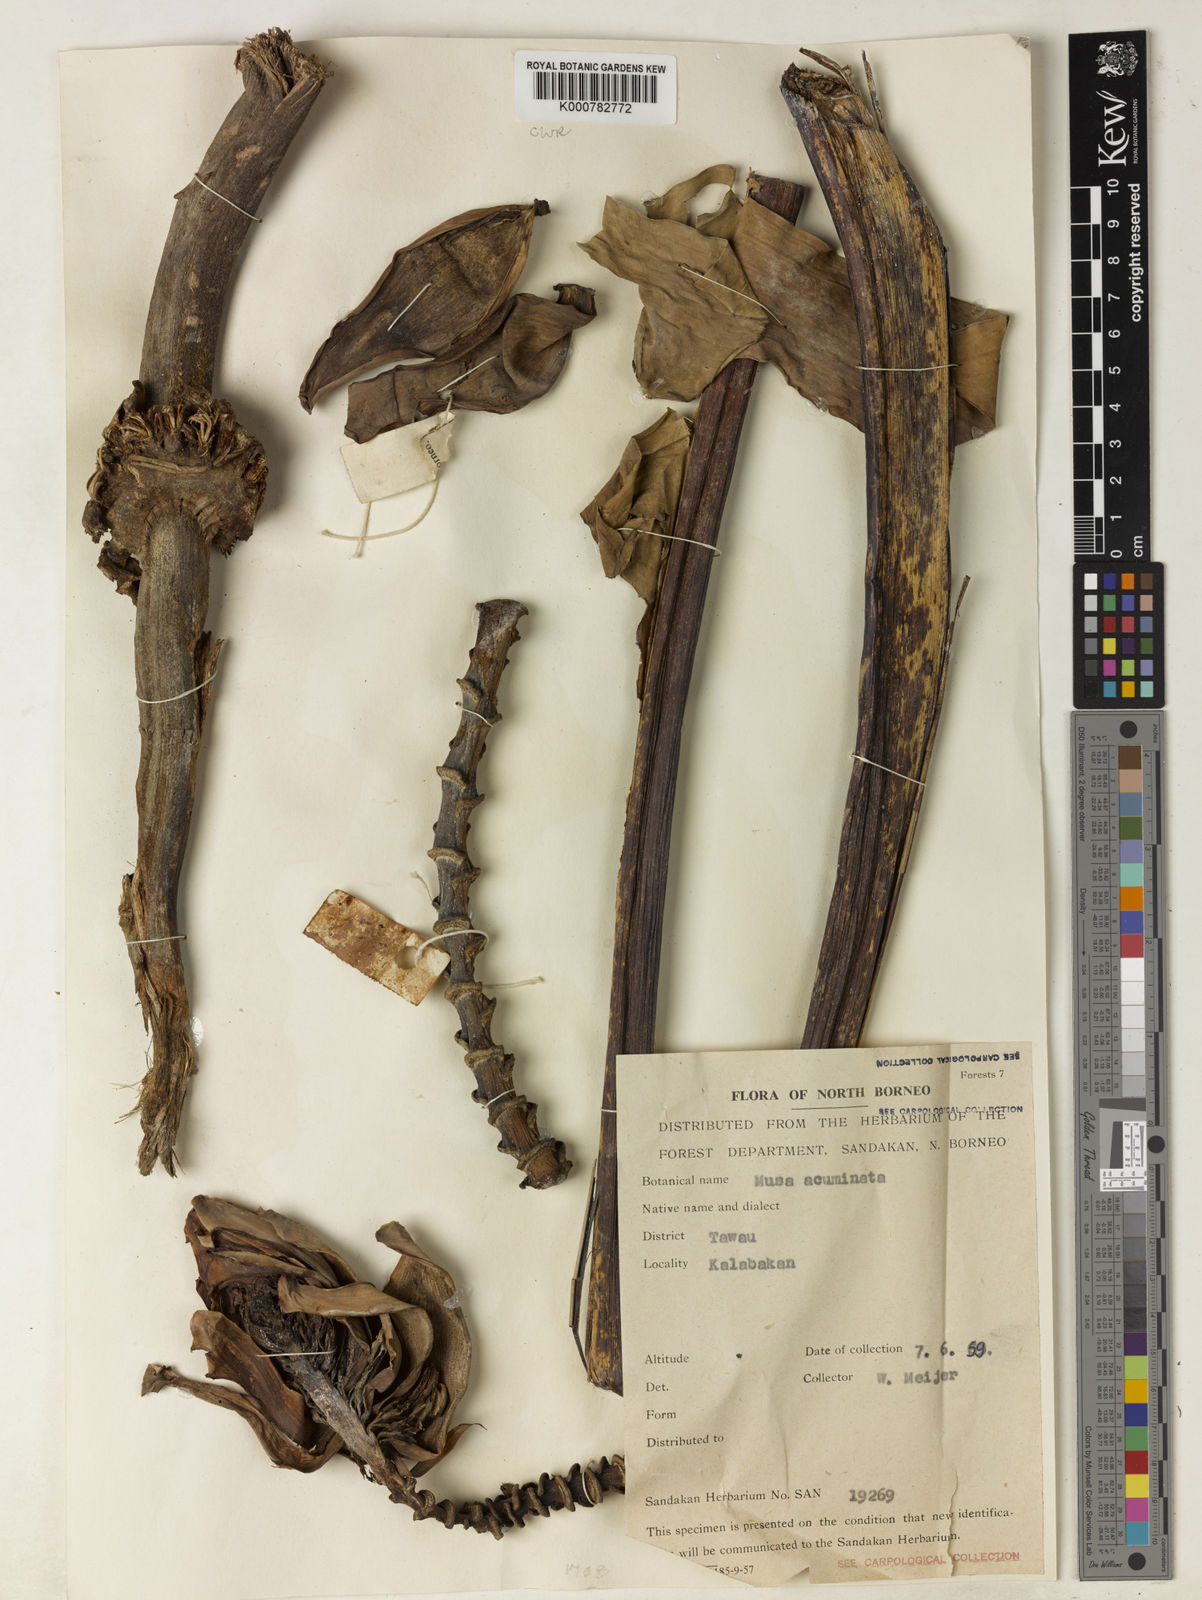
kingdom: Plantae
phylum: Tracheophyta
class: Liliopsida
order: Zingiberales
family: Musaceae
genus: Musa
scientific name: Musa acuminata
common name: Edible banana
